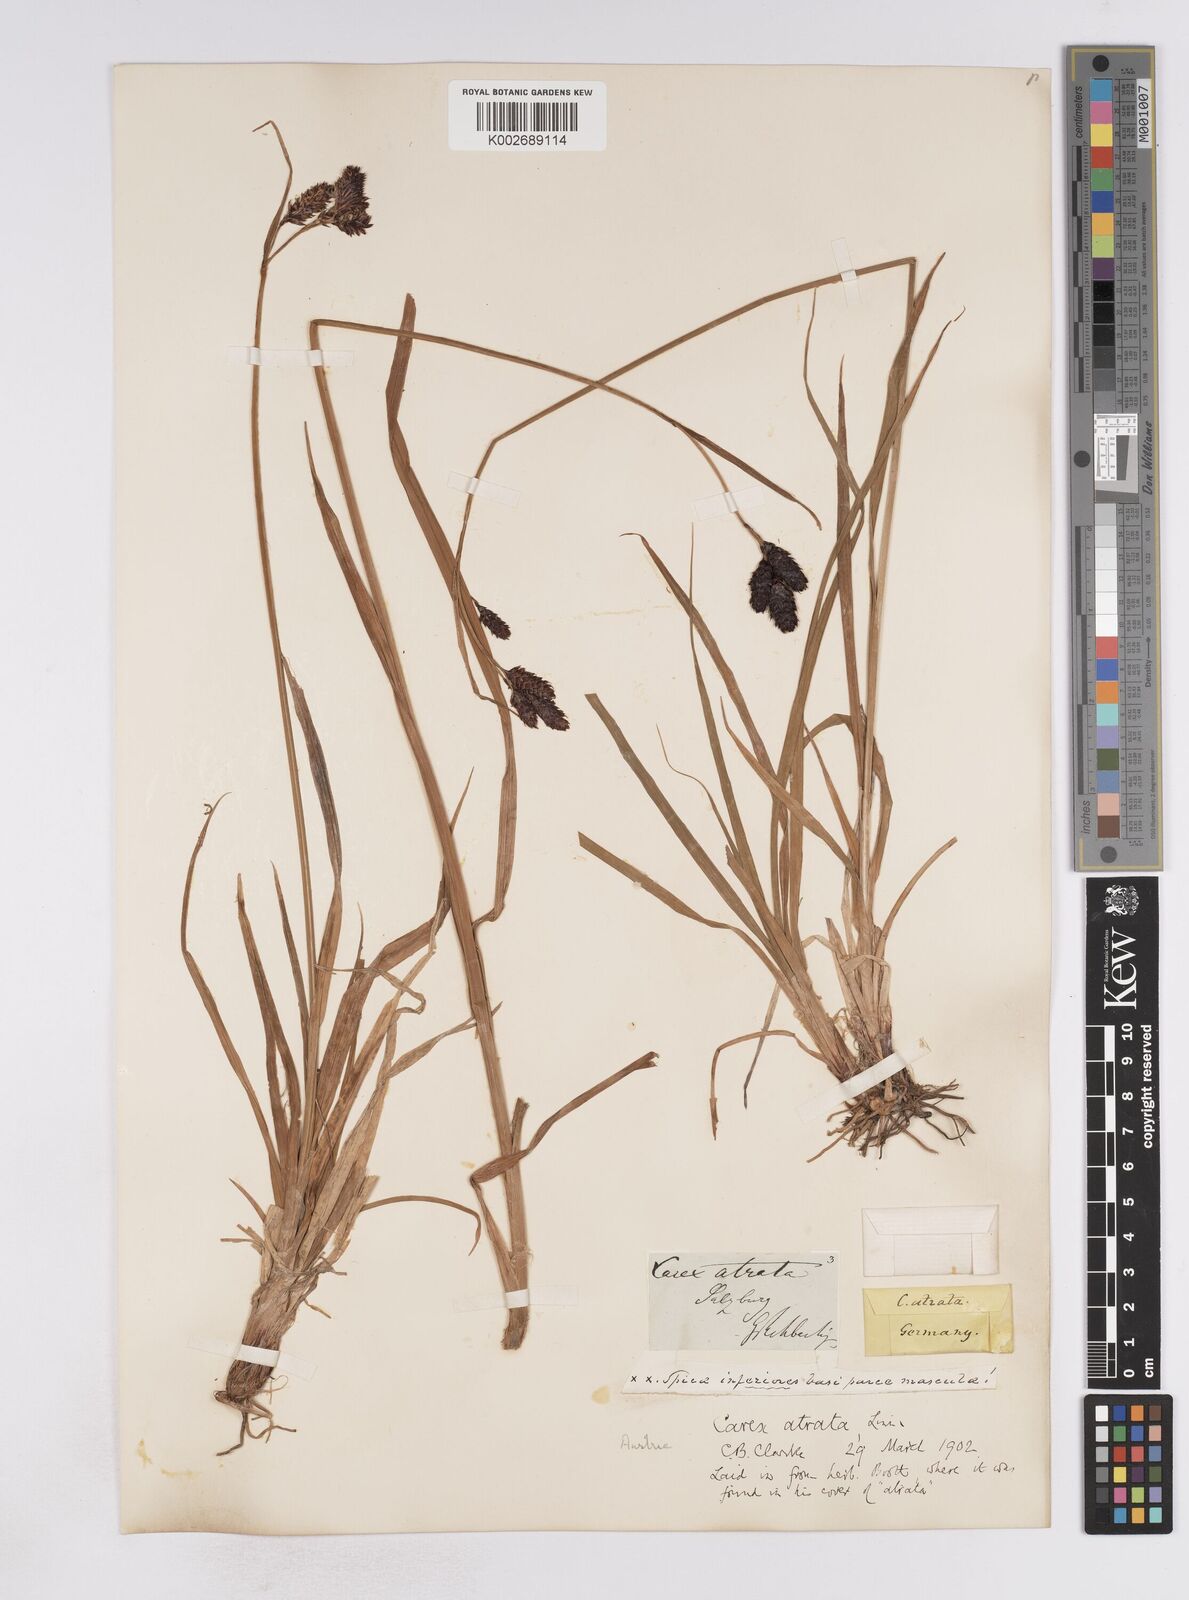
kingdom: Plantae
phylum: Tracheophyta
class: Liliopsida
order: Poales
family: Cyperaceae
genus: Carex
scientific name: Carex aterrima
